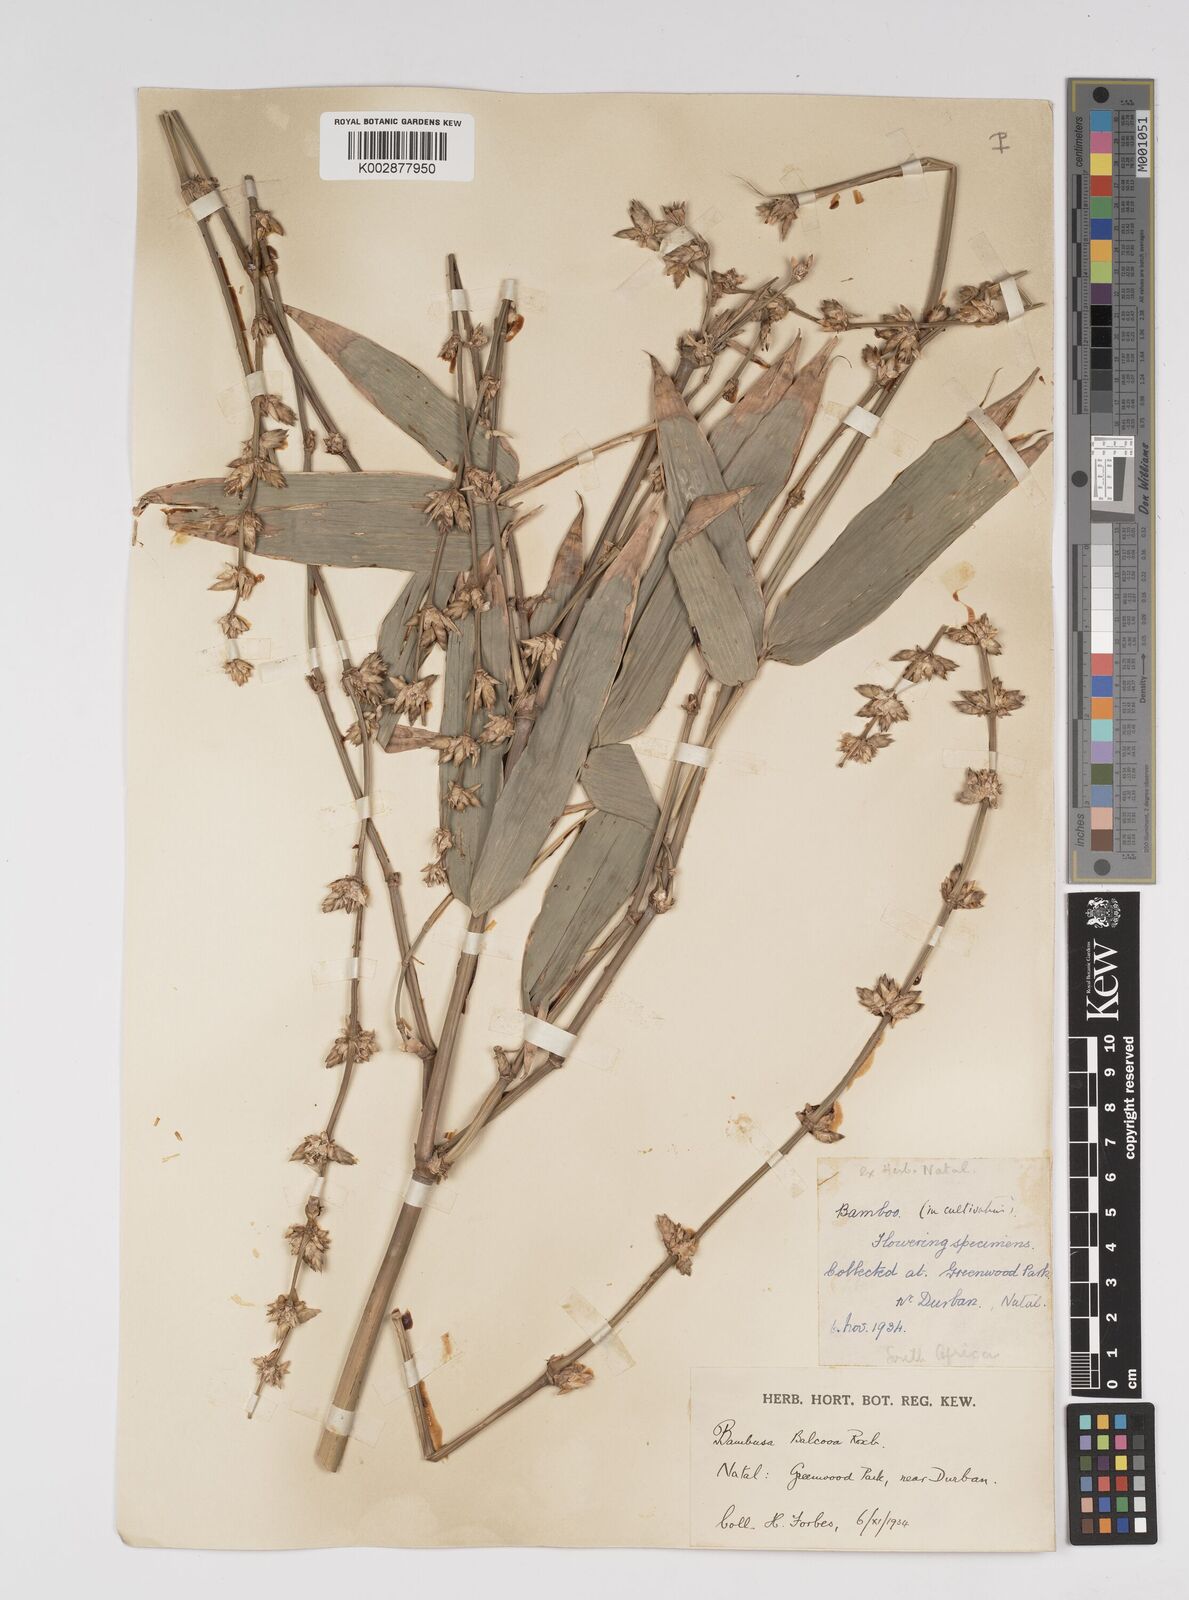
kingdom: Plantae
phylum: Tracheophyta
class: Liliopsida
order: Poales
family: Poaceae
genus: Bambusa
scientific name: Bambusa balcooa
